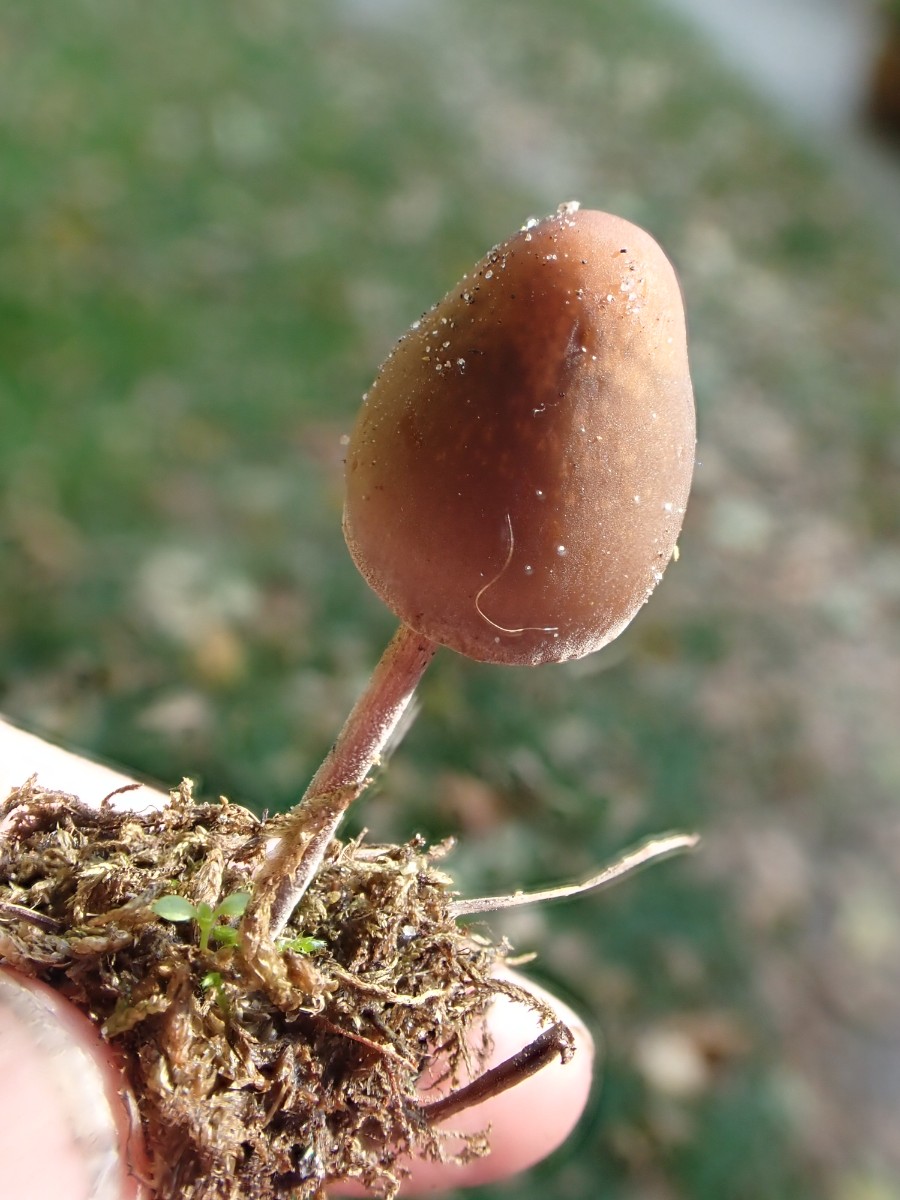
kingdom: Fungi
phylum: Basidiomycota
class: Agaricomycetes
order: Agaricales
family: Bolbitiaceae
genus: Panaeolus
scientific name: Panaeolus acuminatus
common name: høj glanshat
